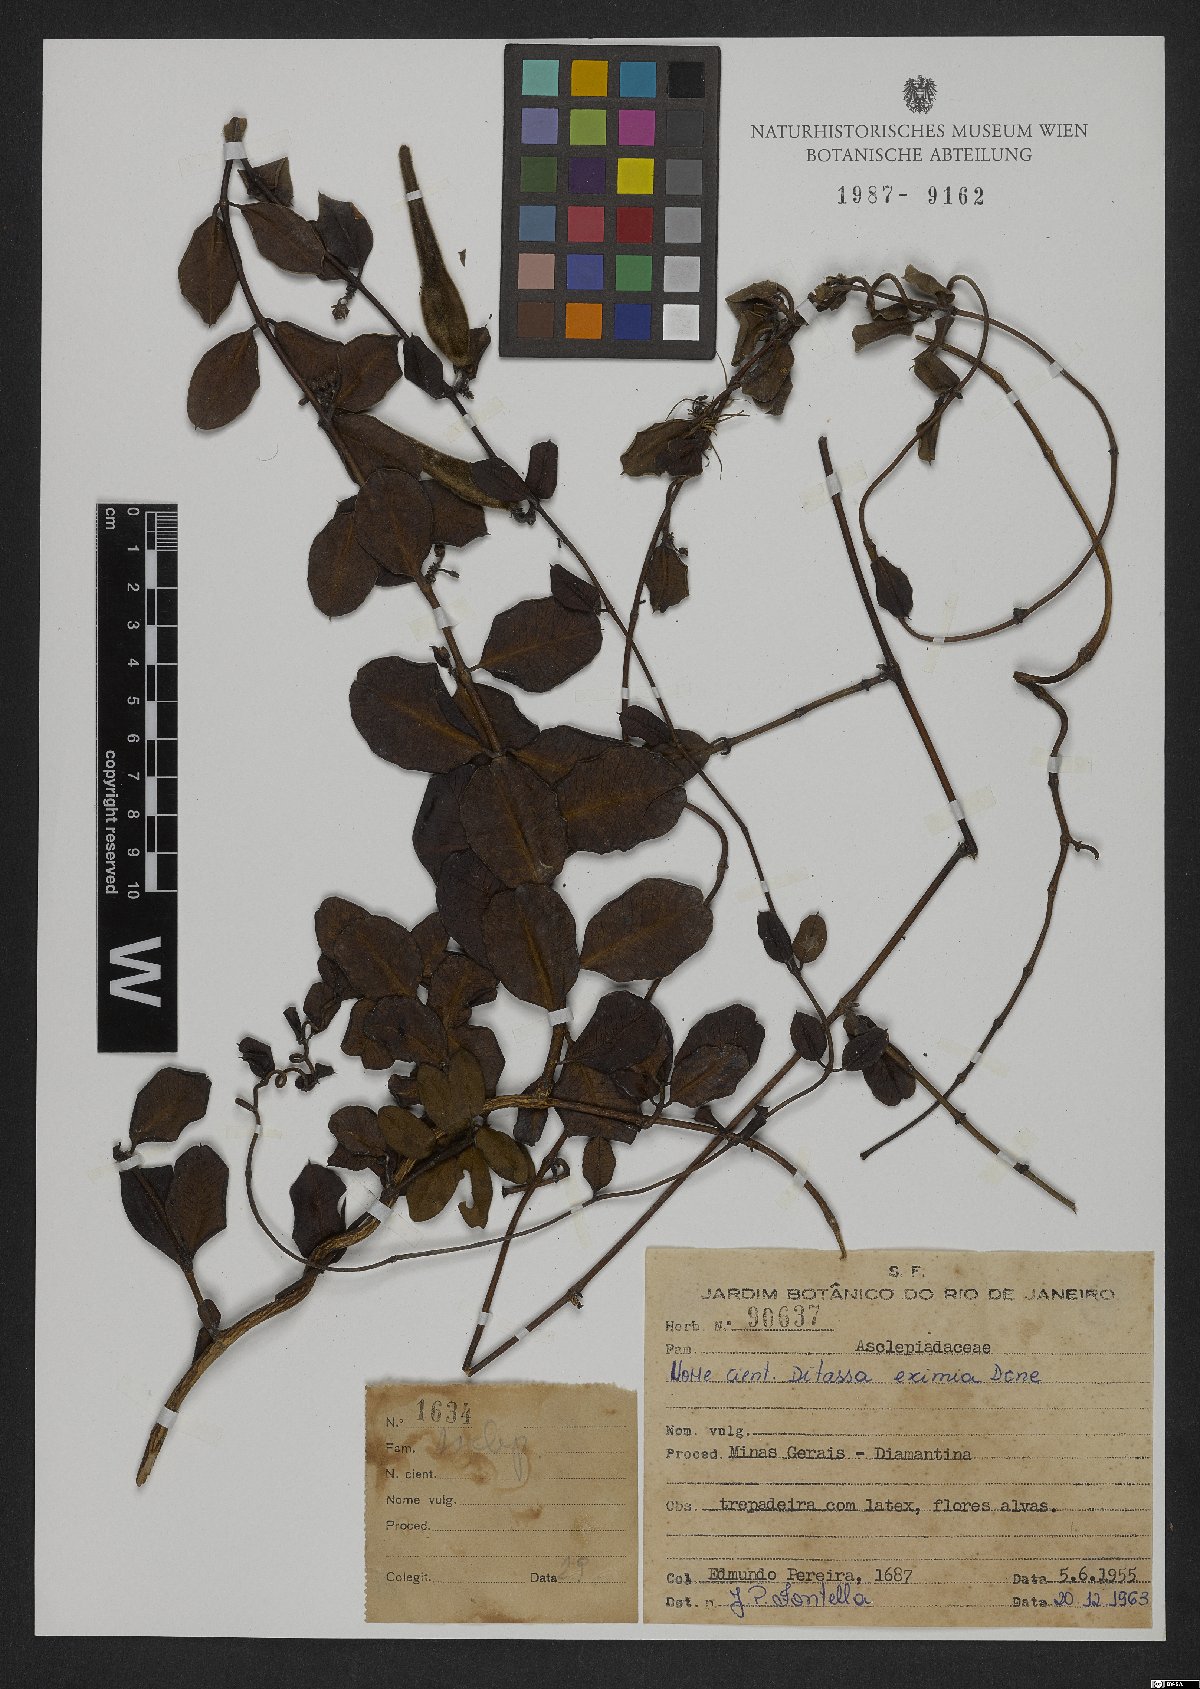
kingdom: Plantae
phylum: Tracheophyta
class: Magnoliopsida
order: Gentianales
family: Apocynaceae
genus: Ditassa
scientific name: Ditassa eximia
